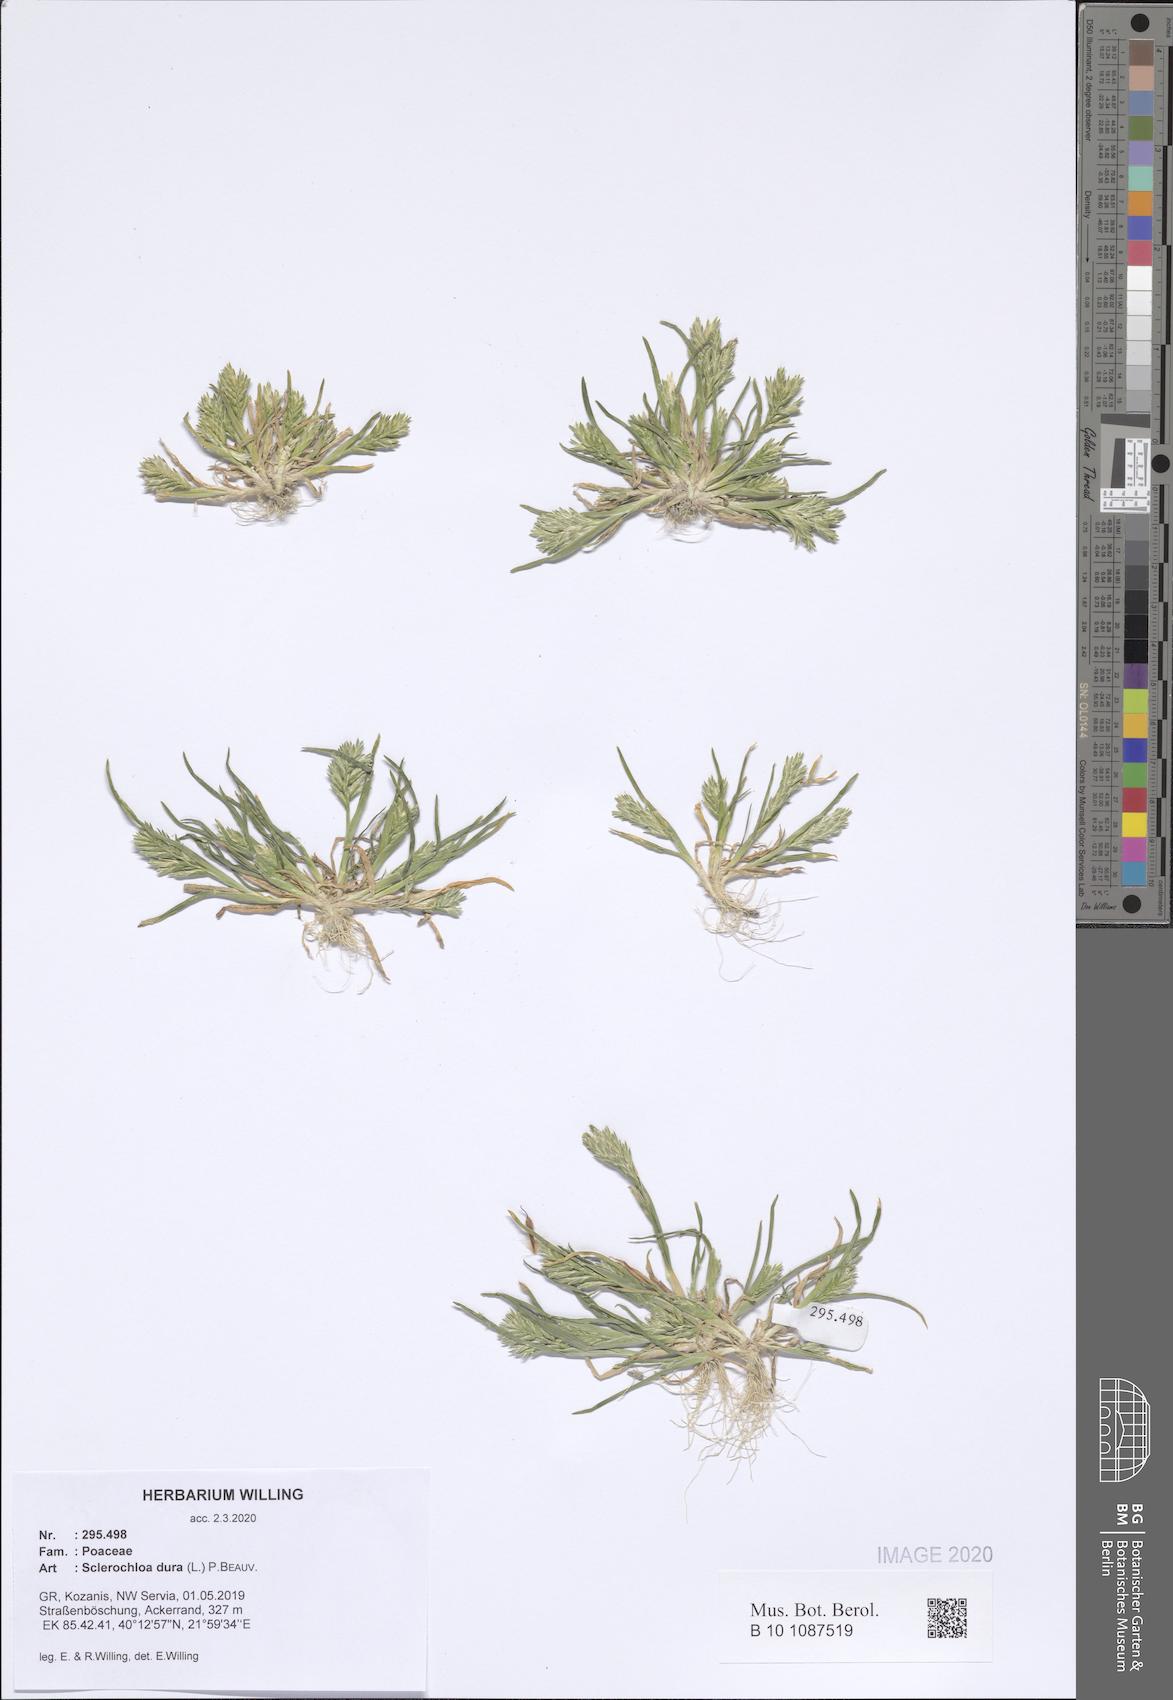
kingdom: Plantae
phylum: Tracheophyta
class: Liliopsida
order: Poales
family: Poaceae
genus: Sclerochloa
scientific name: Sclerochloa dura
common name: Common hardgrass
